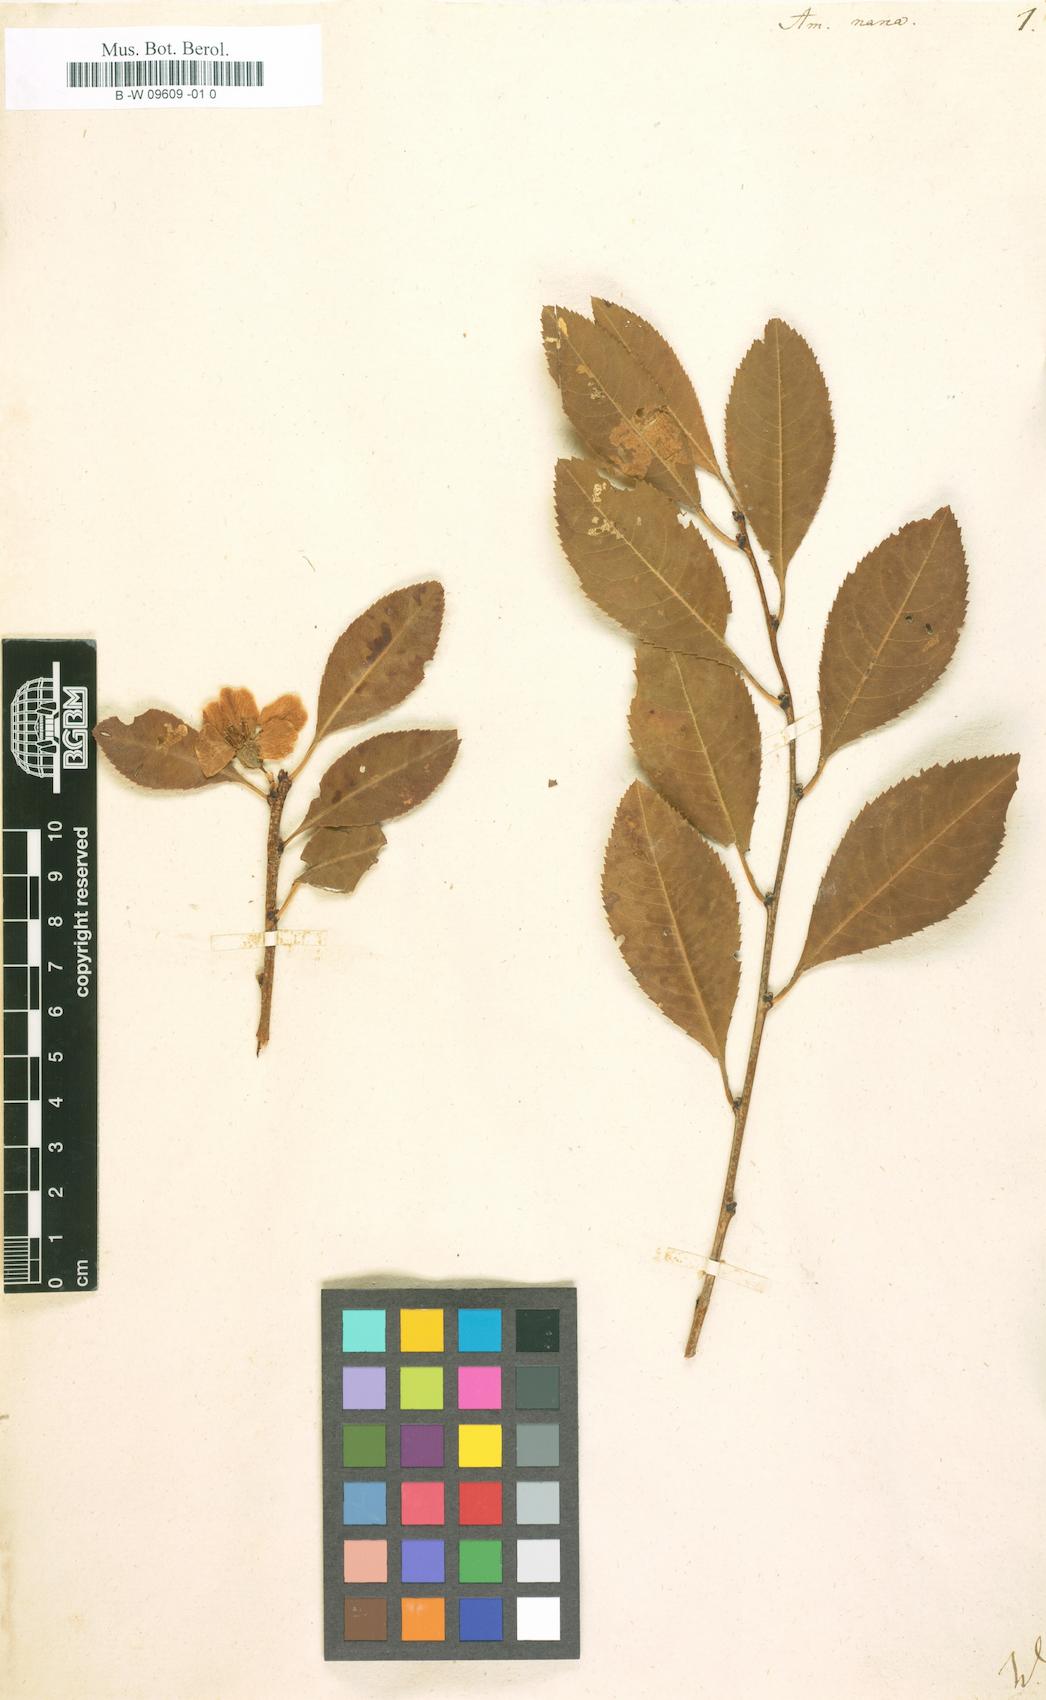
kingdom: Plantae
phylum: Tracheophyta
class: Magnoliopsida
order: Rosales
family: Rosaceae
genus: Prunus
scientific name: Prunus tenella
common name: Dwarf russian almond
